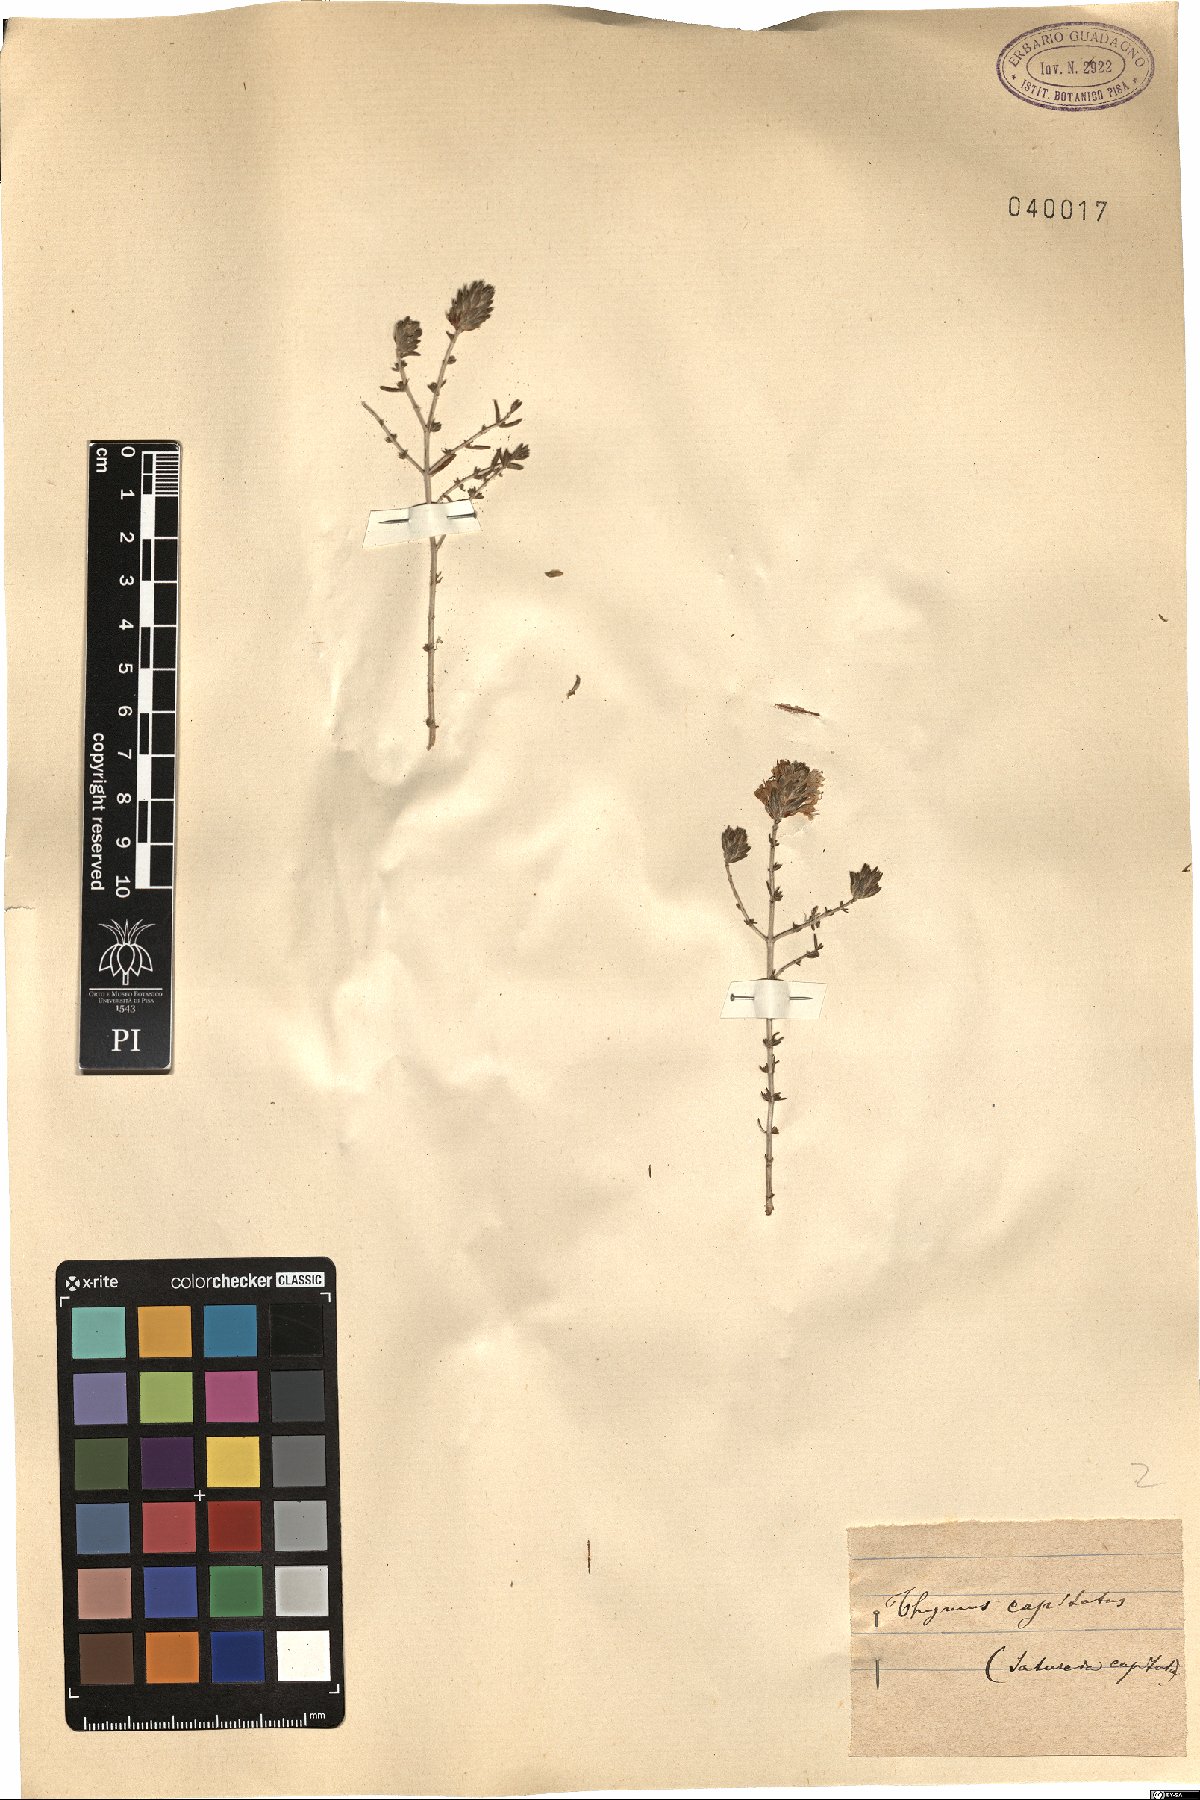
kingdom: Plantae
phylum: Tracheophyta
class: Magnoliopsida
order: Lamiales
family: Lamiaceae
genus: Thymbra
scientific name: Thymbra capitata
